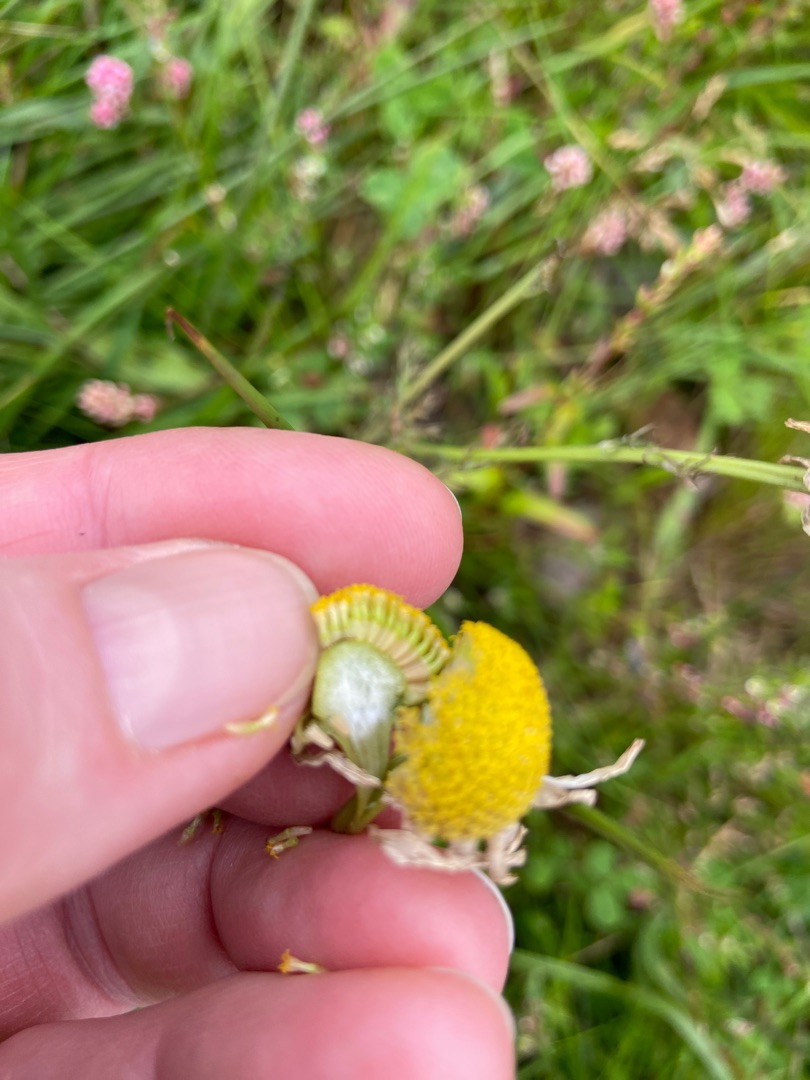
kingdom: Plantae
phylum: Tracheophyta
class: Magnoliopsida
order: Asterales
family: Asteraceae
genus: Tripleurospermum
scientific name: Tripleurospermum inodorum
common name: Lugtløs kamille
